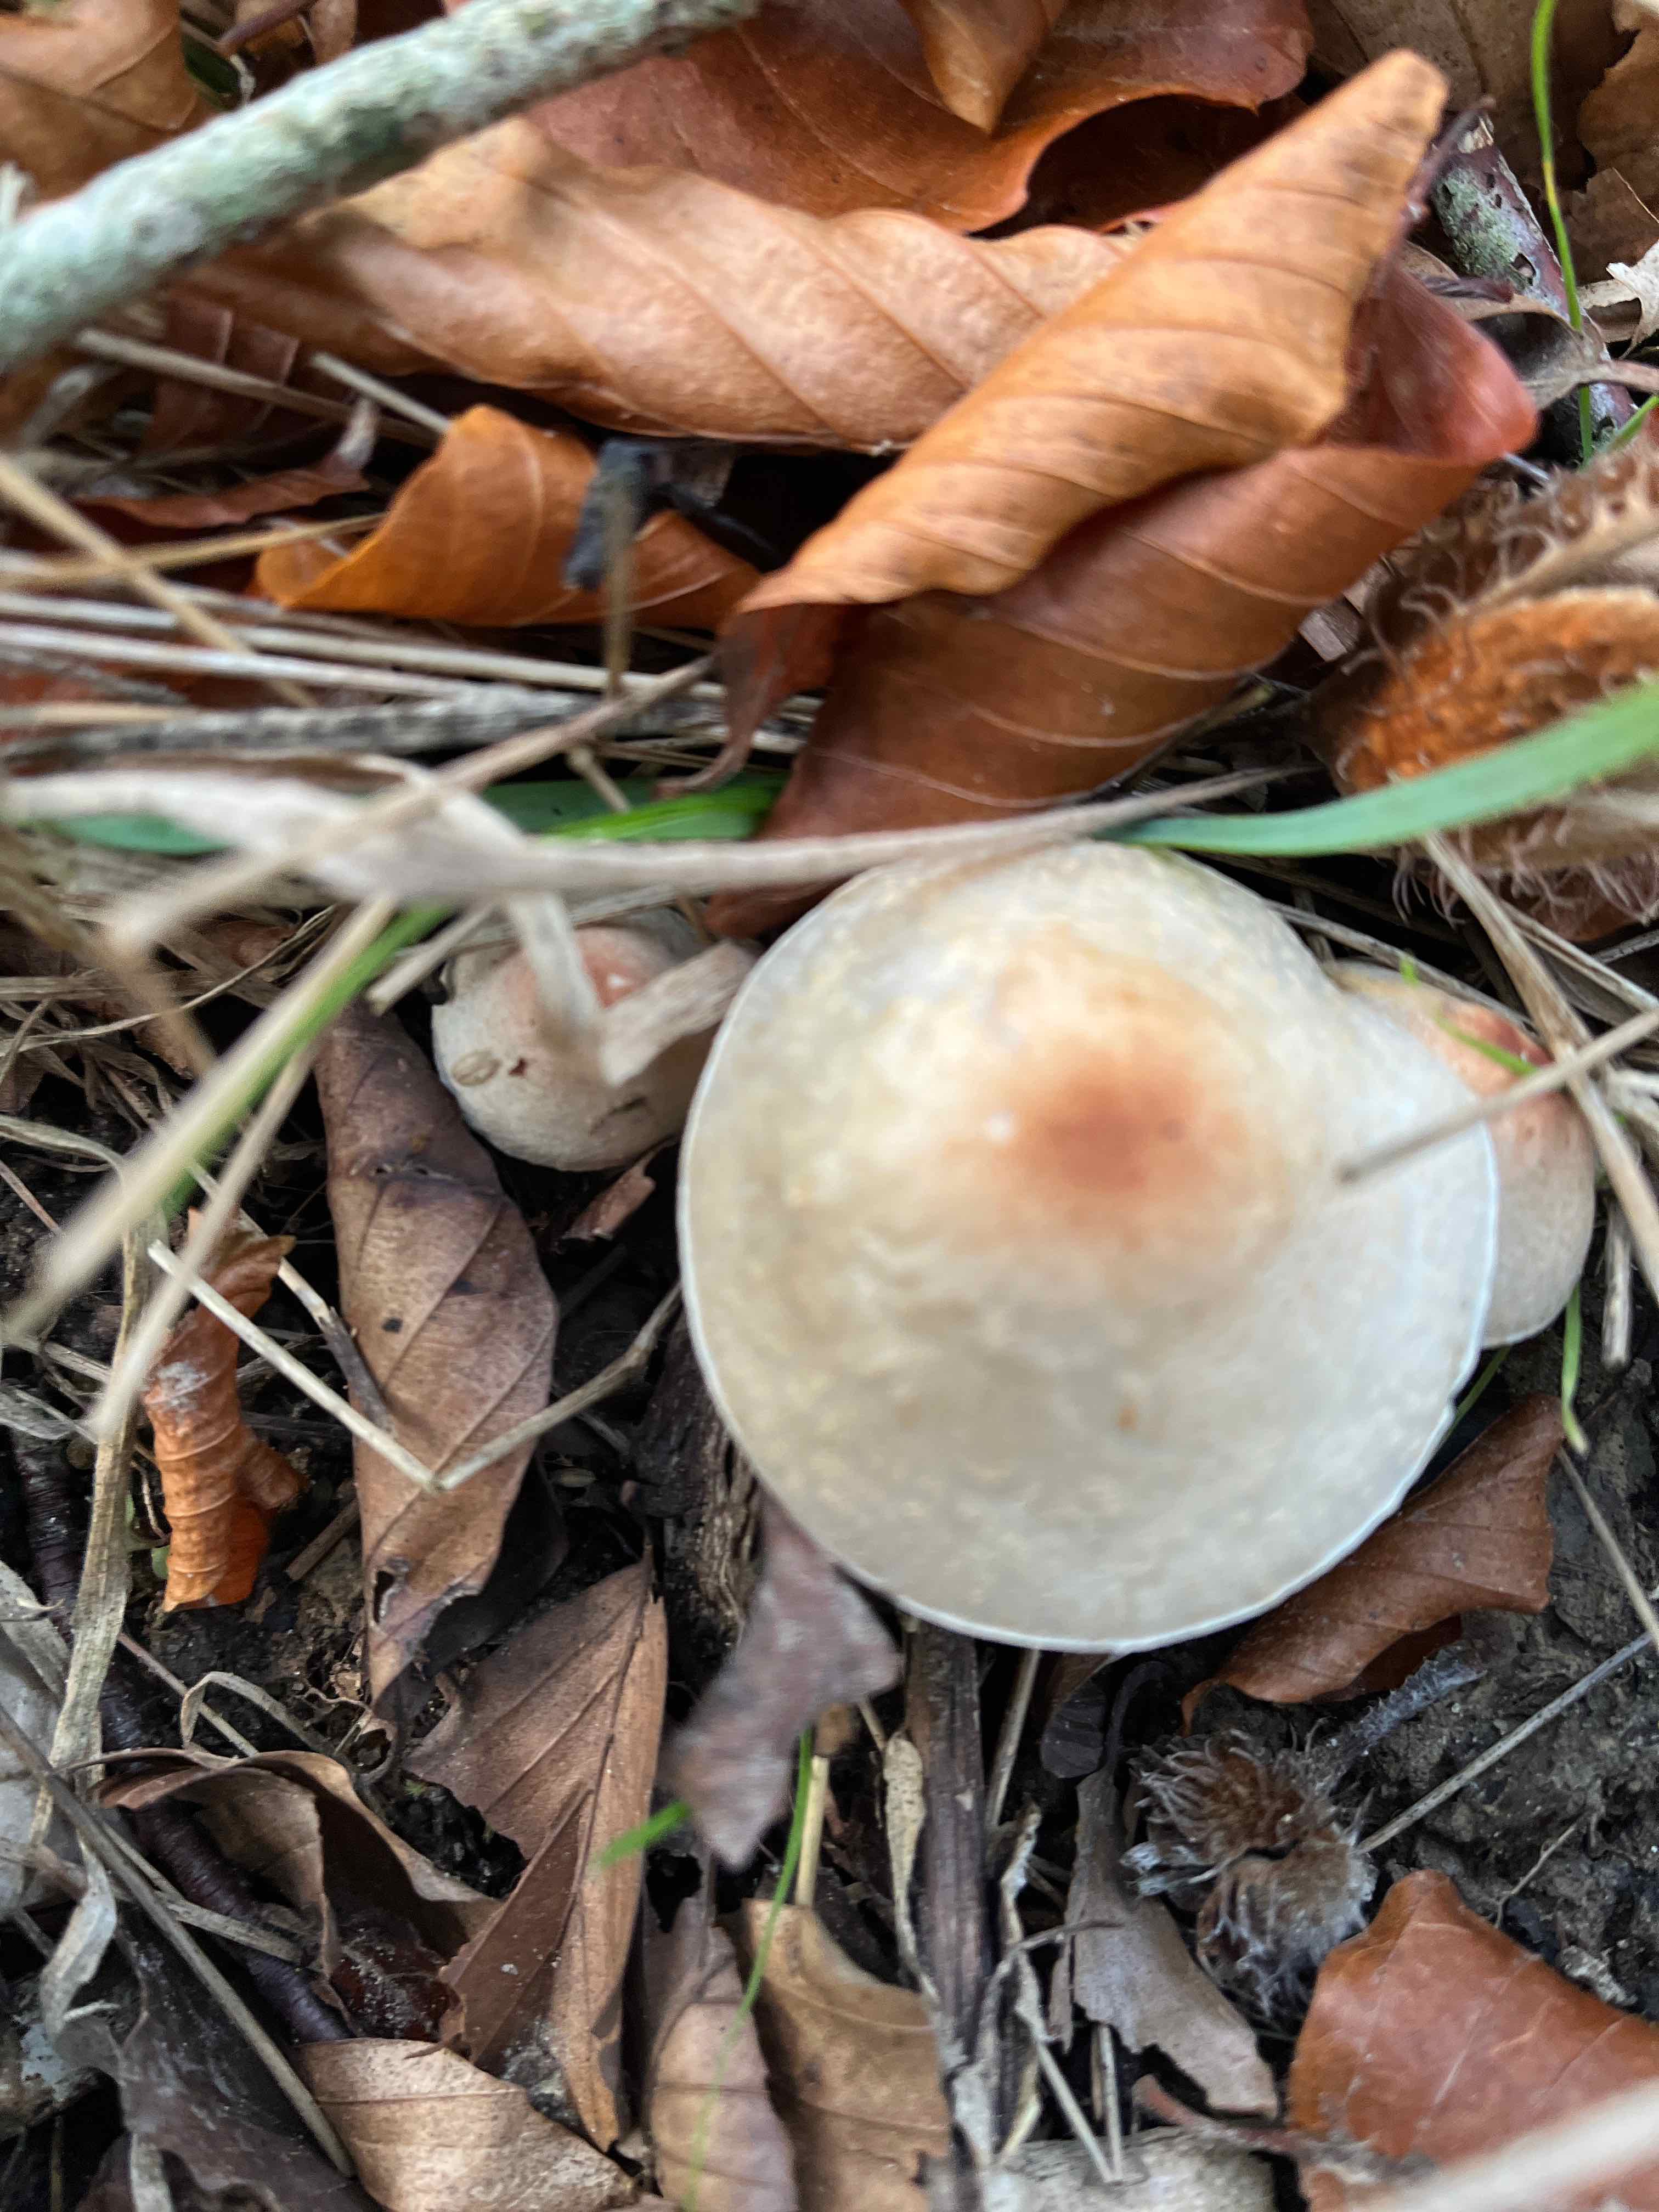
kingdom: Fungi
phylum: Basidiomycota
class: Agaricomycetes
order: Agaricales
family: Agaricaceae
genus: Lepiota
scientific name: Lepiota cristata
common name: stinkende parasolhat
